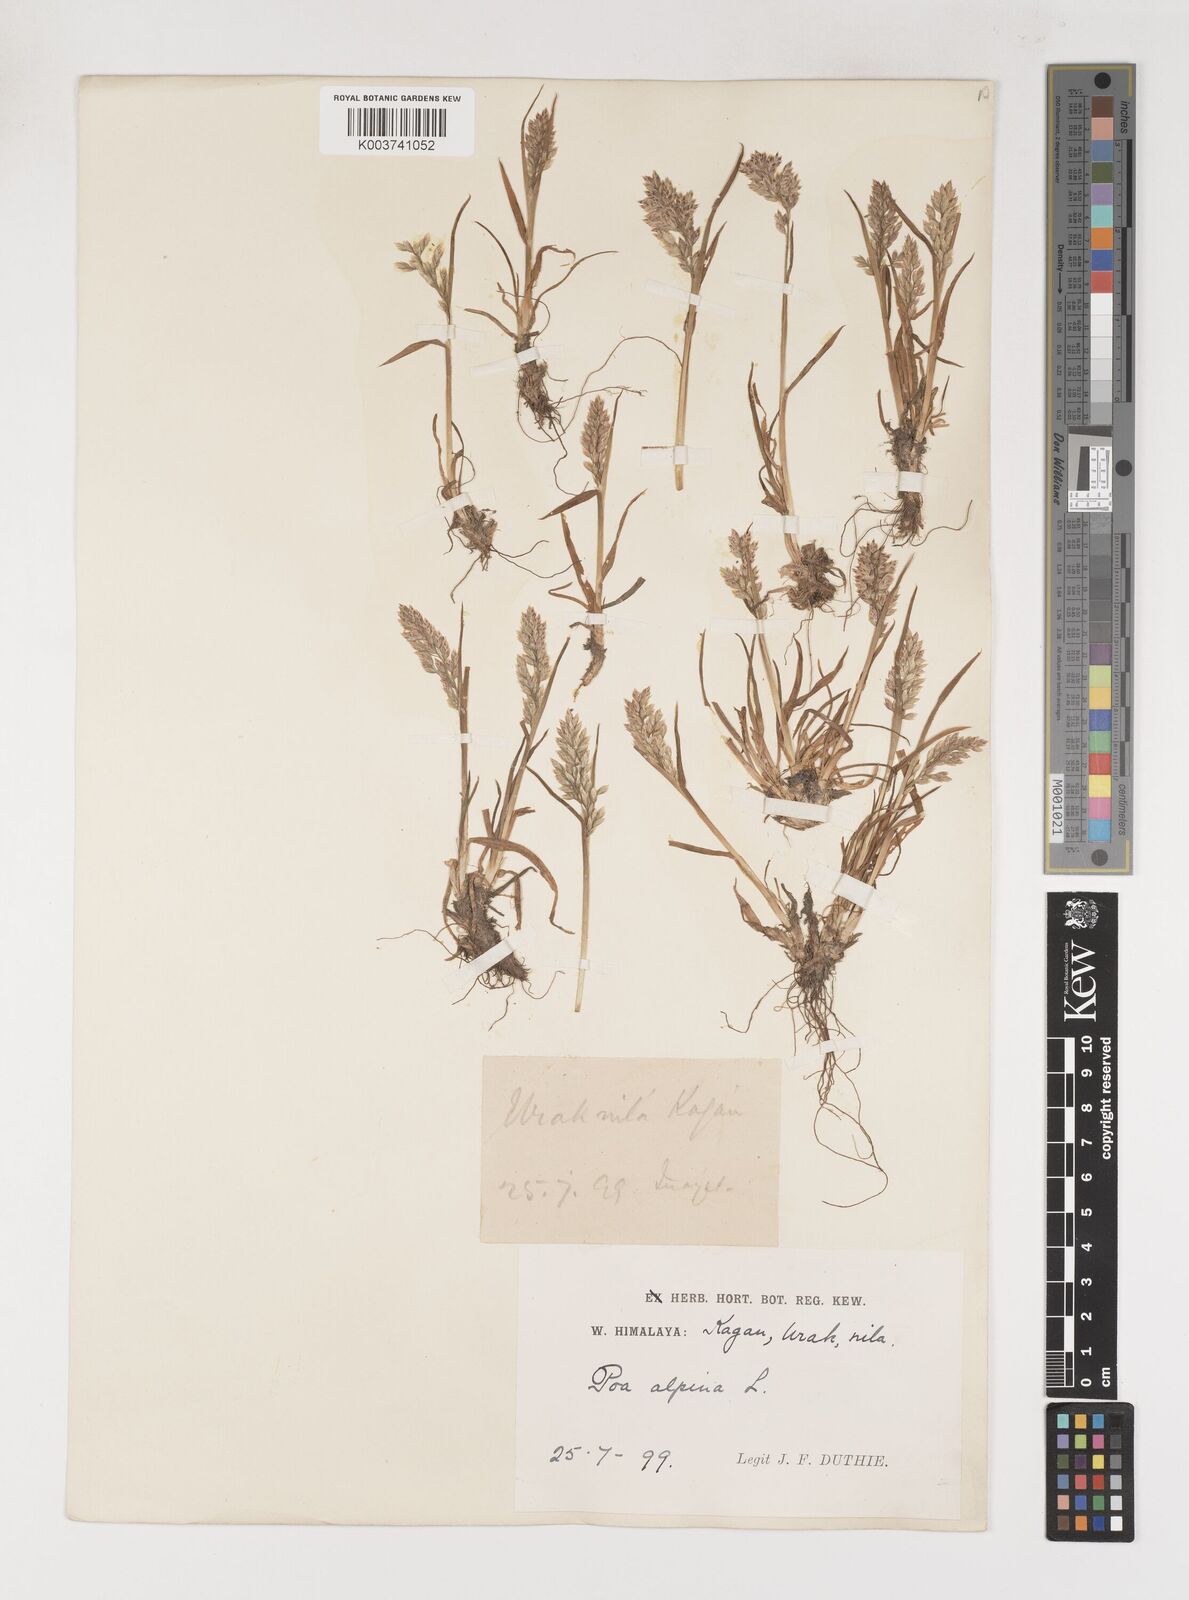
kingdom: Plantae
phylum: Tracheophyta
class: Liliopsida
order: Poales
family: Poaceae
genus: Poa
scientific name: Poa alpina
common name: Alpine bluegrass
